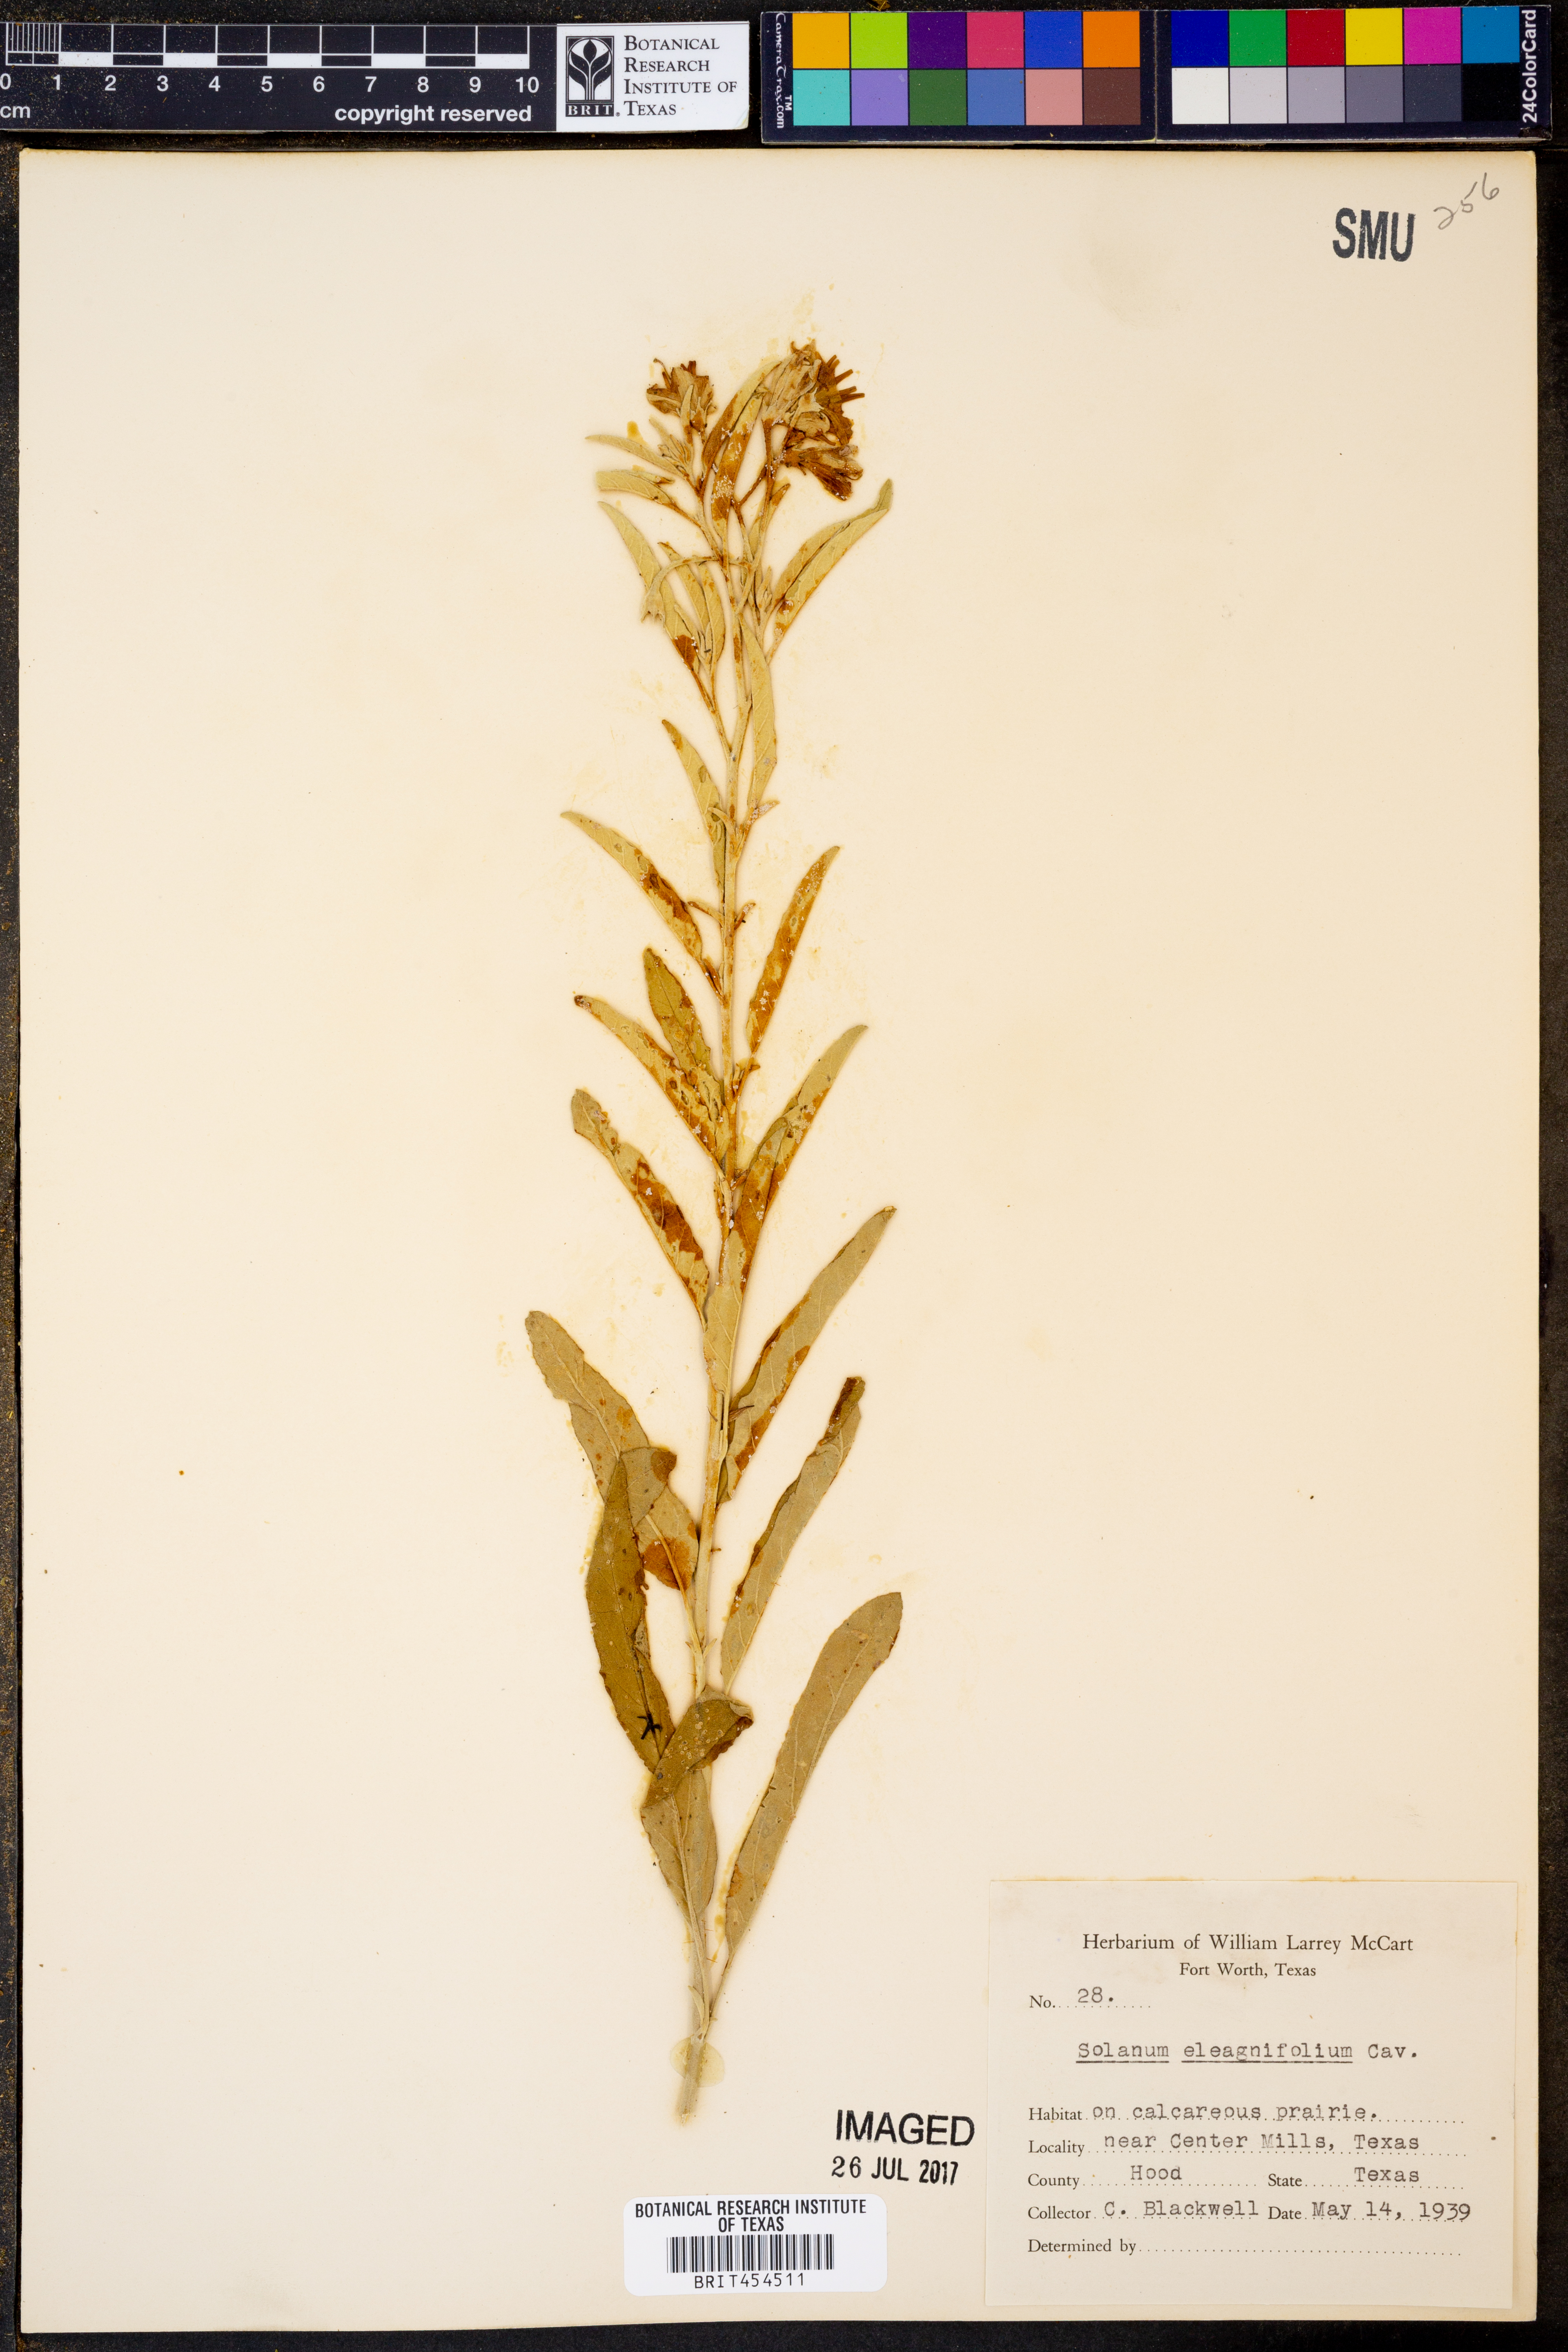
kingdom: Plantae
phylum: Tracheophyta
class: Magnoliopsida
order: Solanales
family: Solanaceae
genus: Solanum
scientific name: Solanum elaeagnifolium
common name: Silverleaf nightshade
